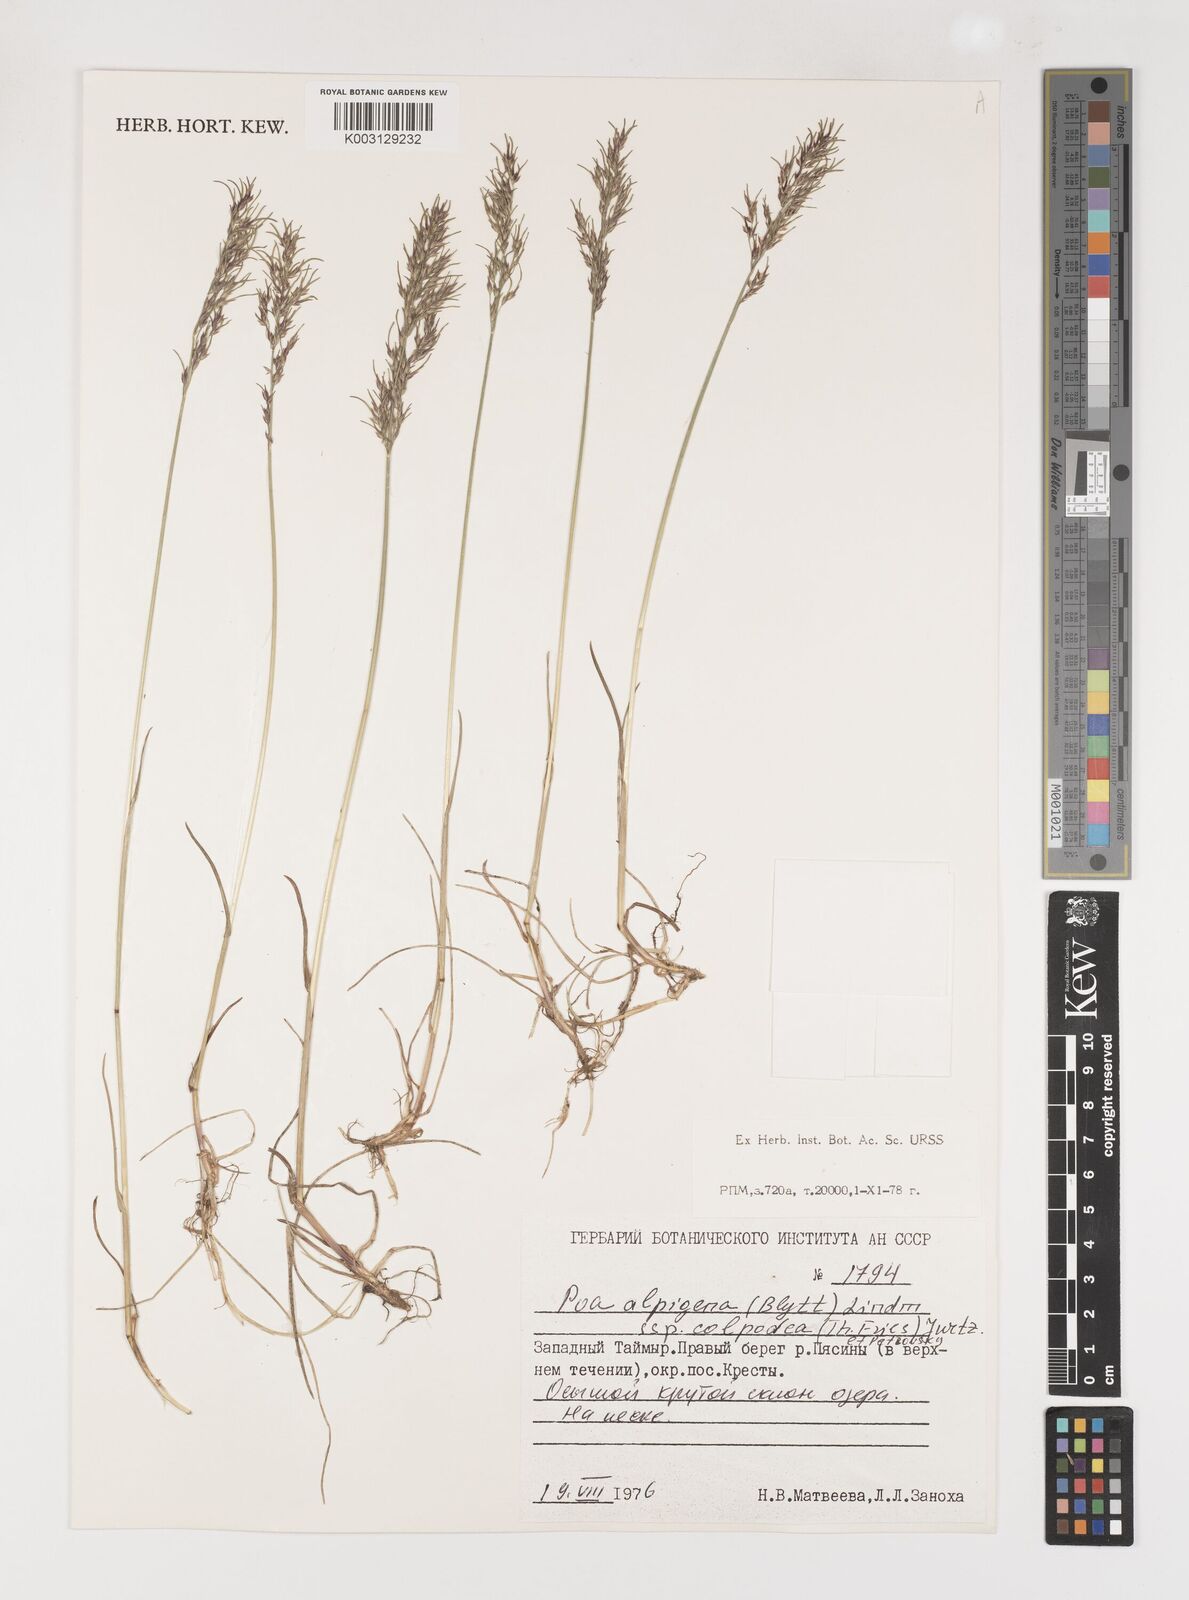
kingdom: Plantae
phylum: Tracheophyta
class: Liliopsida
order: Poales
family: Poaceae
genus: Poa
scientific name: Poa lindebergii
